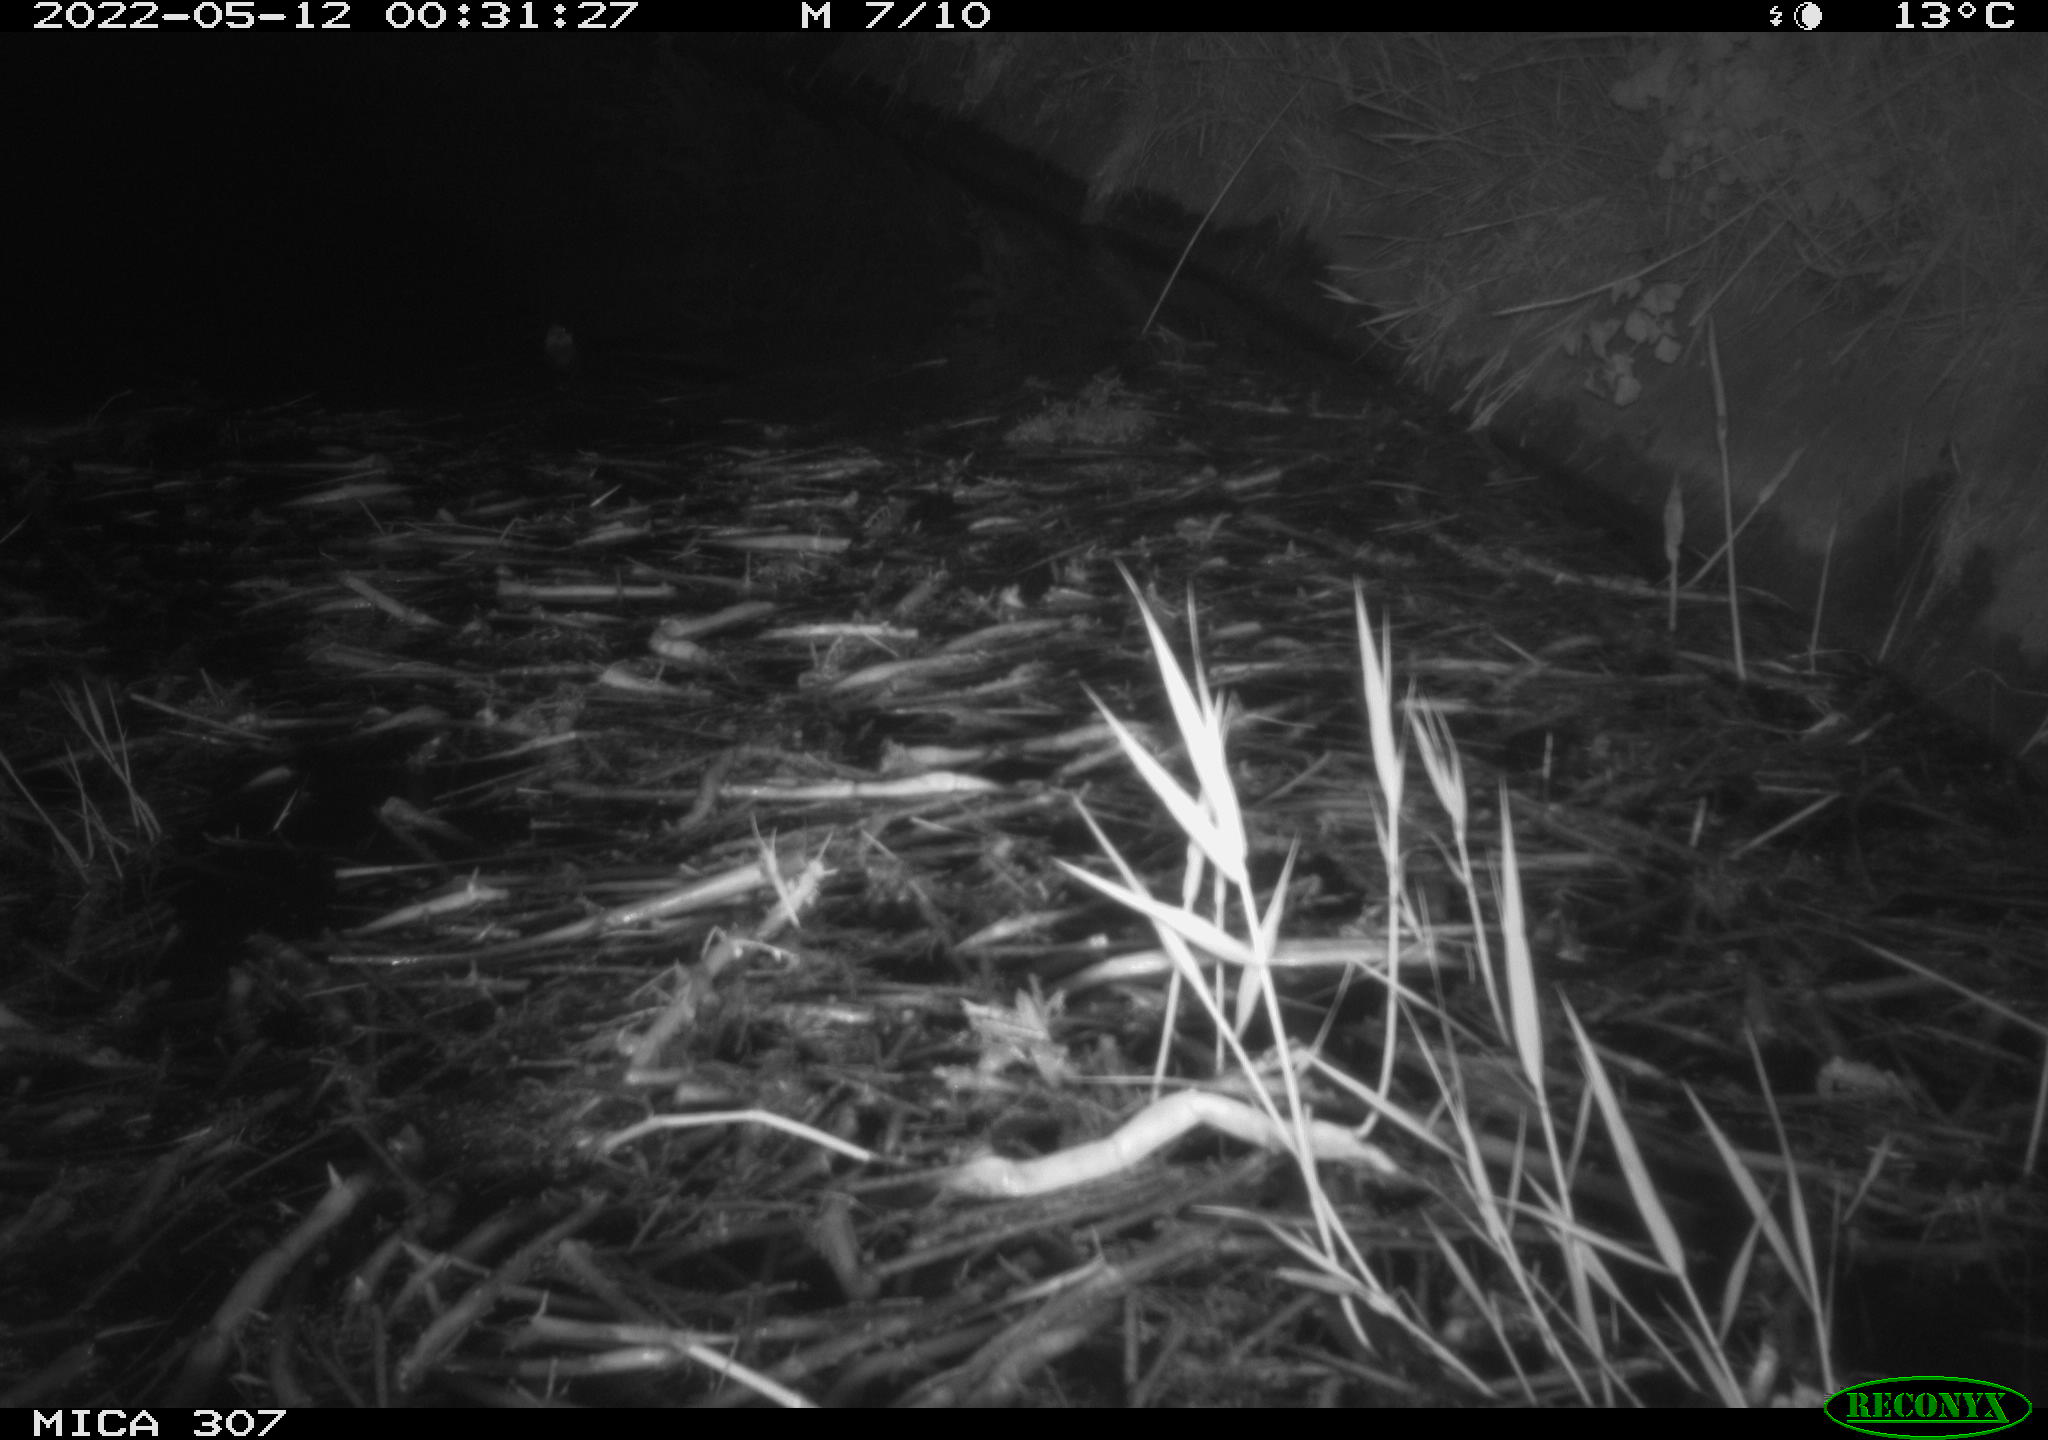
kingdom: Animalia
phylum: Chordata
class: Mammalia
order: Rodentia
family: Muridae
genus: Rattus
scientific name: Rattus norvegicus
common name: Brown rat
